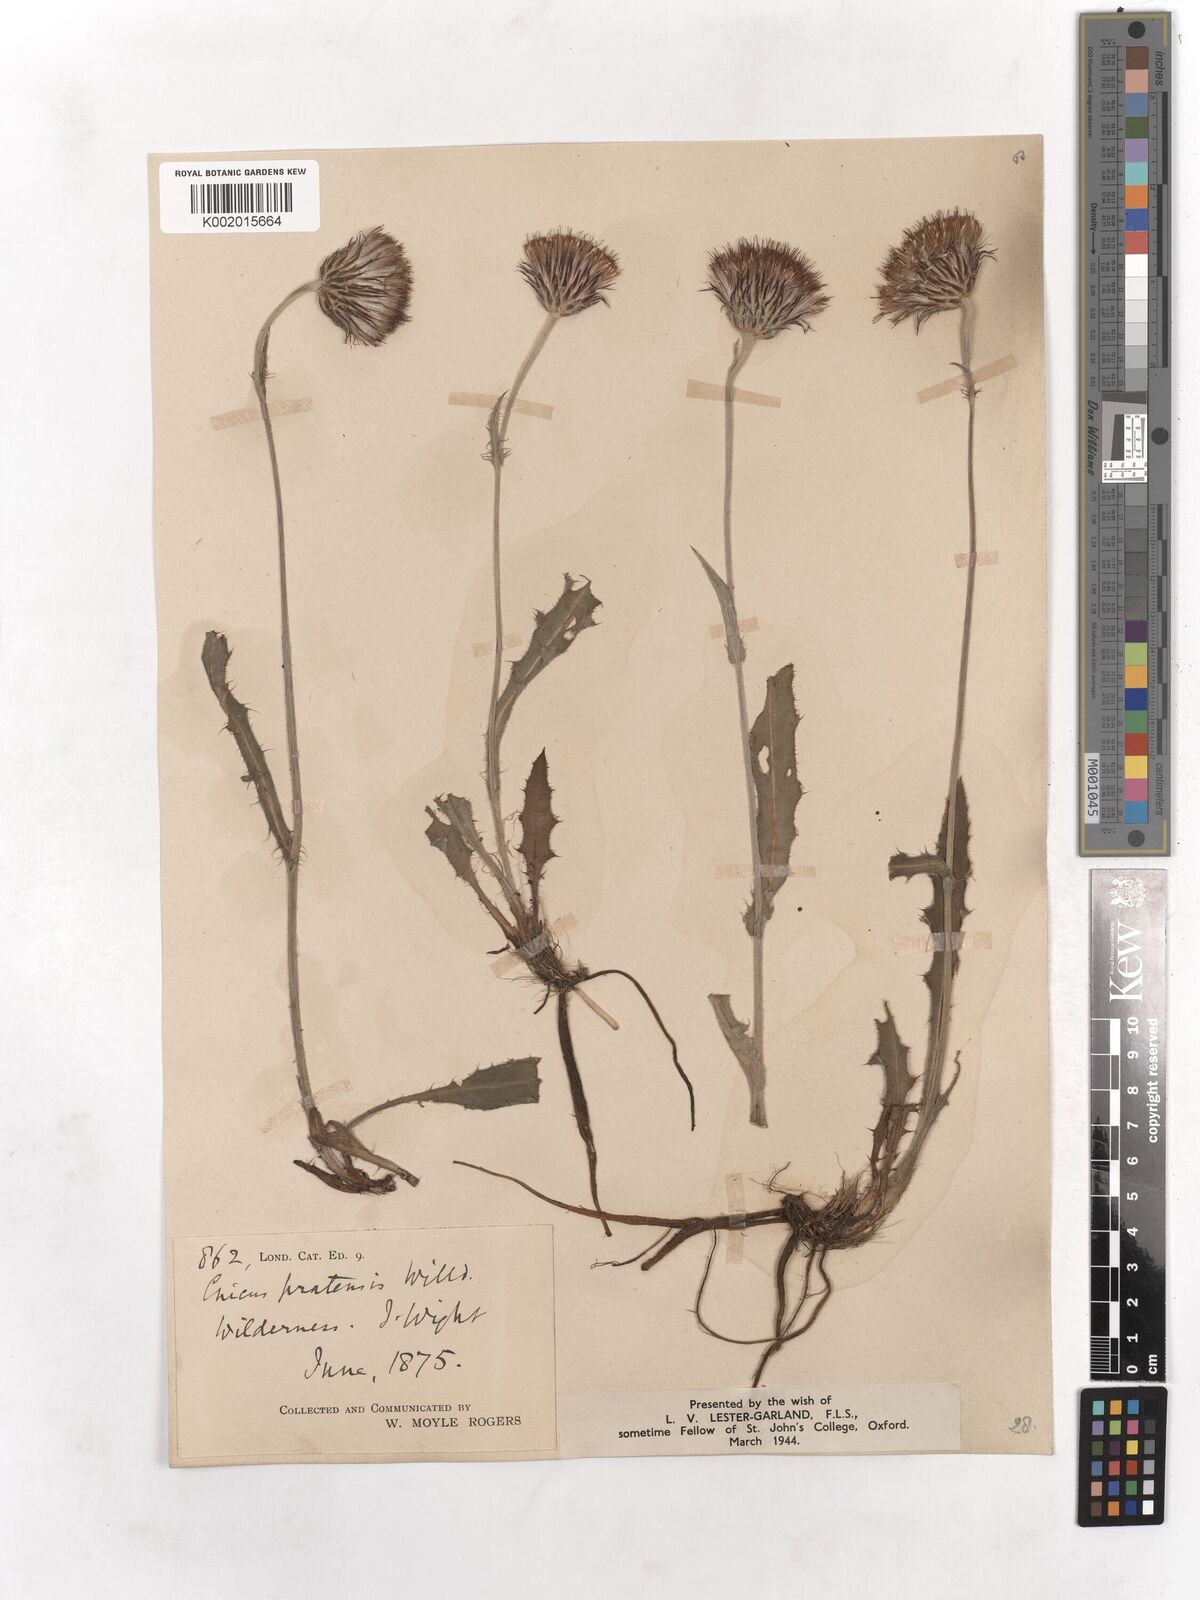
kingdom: Plantae
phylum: Tracheophyta
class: Magnoliopsida
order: Asterales
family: Asteraceae
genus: Cirsium
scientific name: Cirsium dissectum
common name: Meadow thistle
